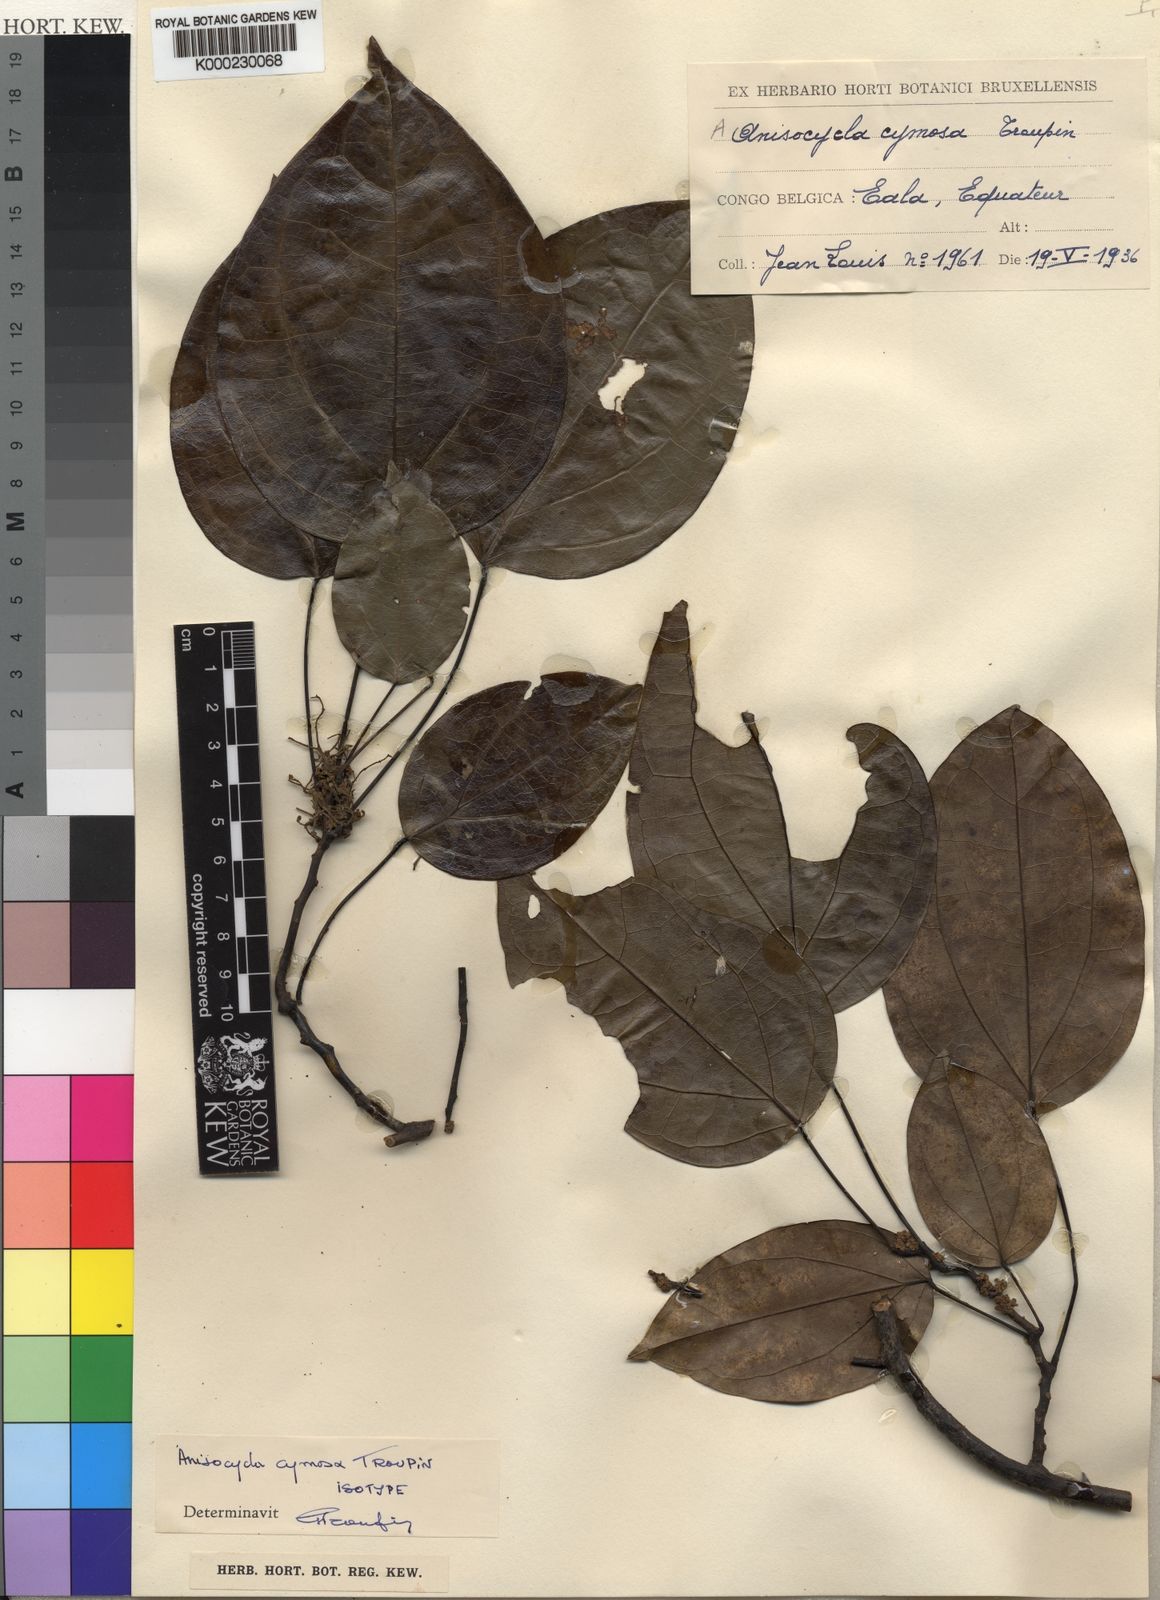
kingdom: Plantae
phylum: Tracheophyta
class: Magnoliopsida
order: Ranunculales
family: Menispermaceae
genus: Anisocycla
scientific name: Anisocycla cymosa
